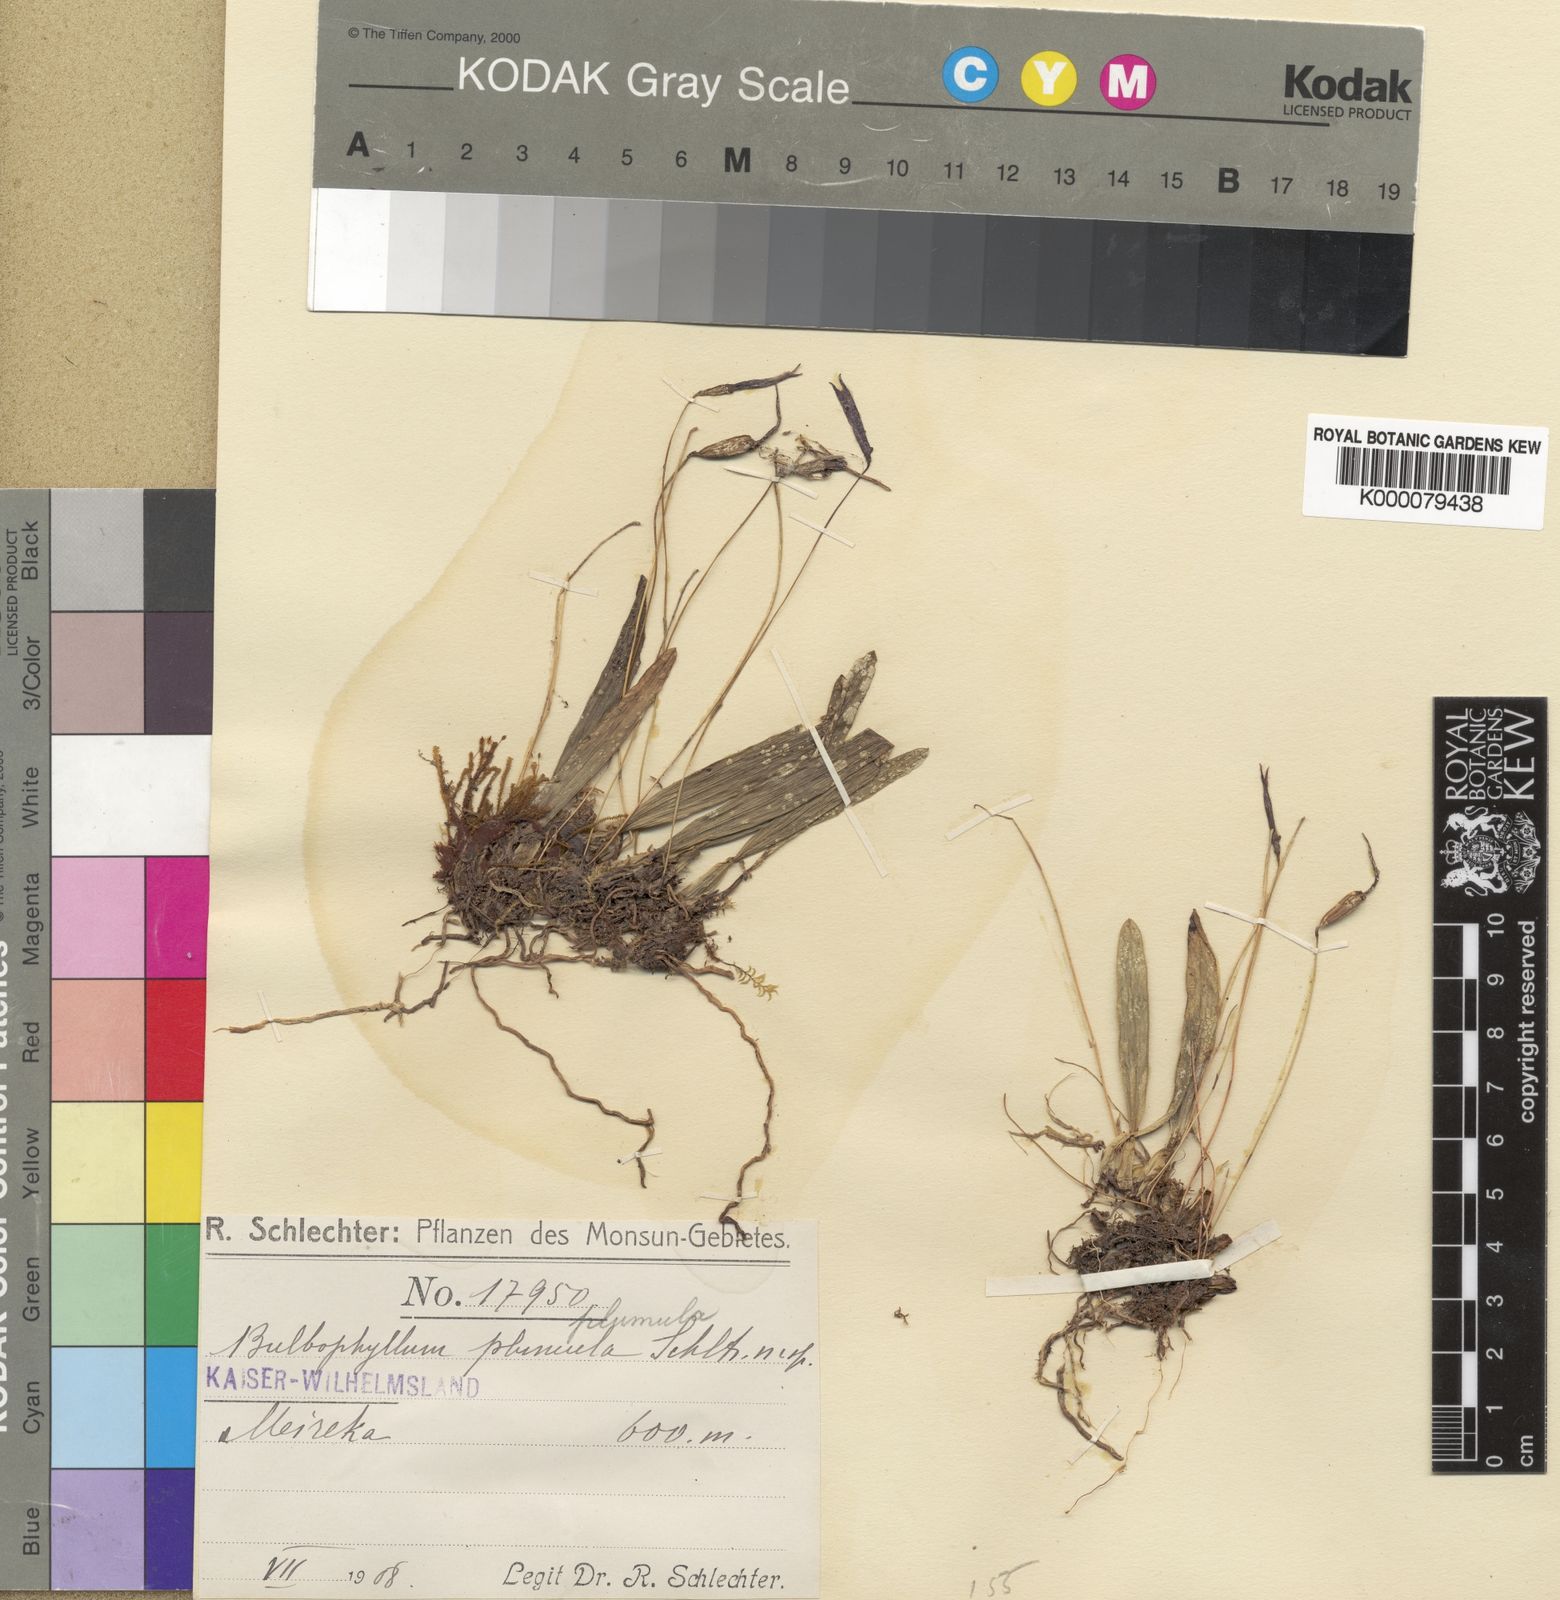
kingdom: Plantae
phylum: Tracheophyta
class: Liliopsida
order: Asparagales
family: Orchidaceae
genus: Bulbophyllum
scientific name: Bulbophyllum plumula
